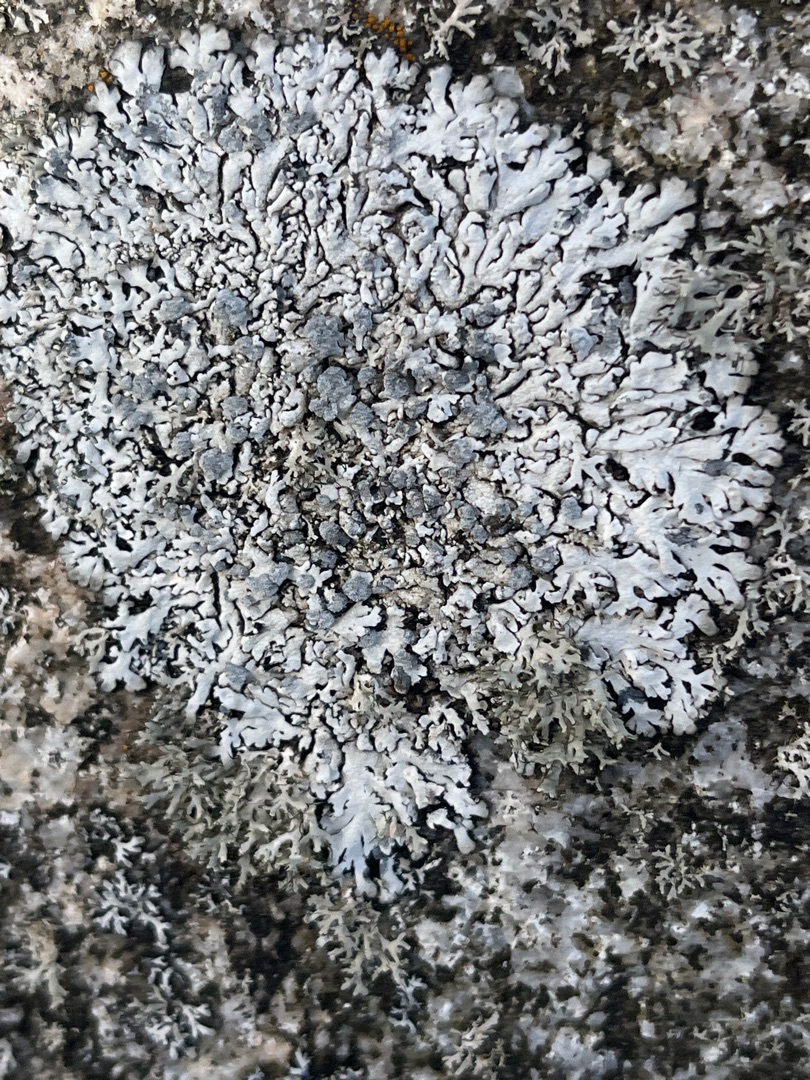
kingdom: Fungi
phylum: Ascomycota
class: Lecanoromycetes
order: Caliciales
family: Physciaceae
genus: Physcia
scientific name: Physcia caesia
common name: Blågrå rosetlav
